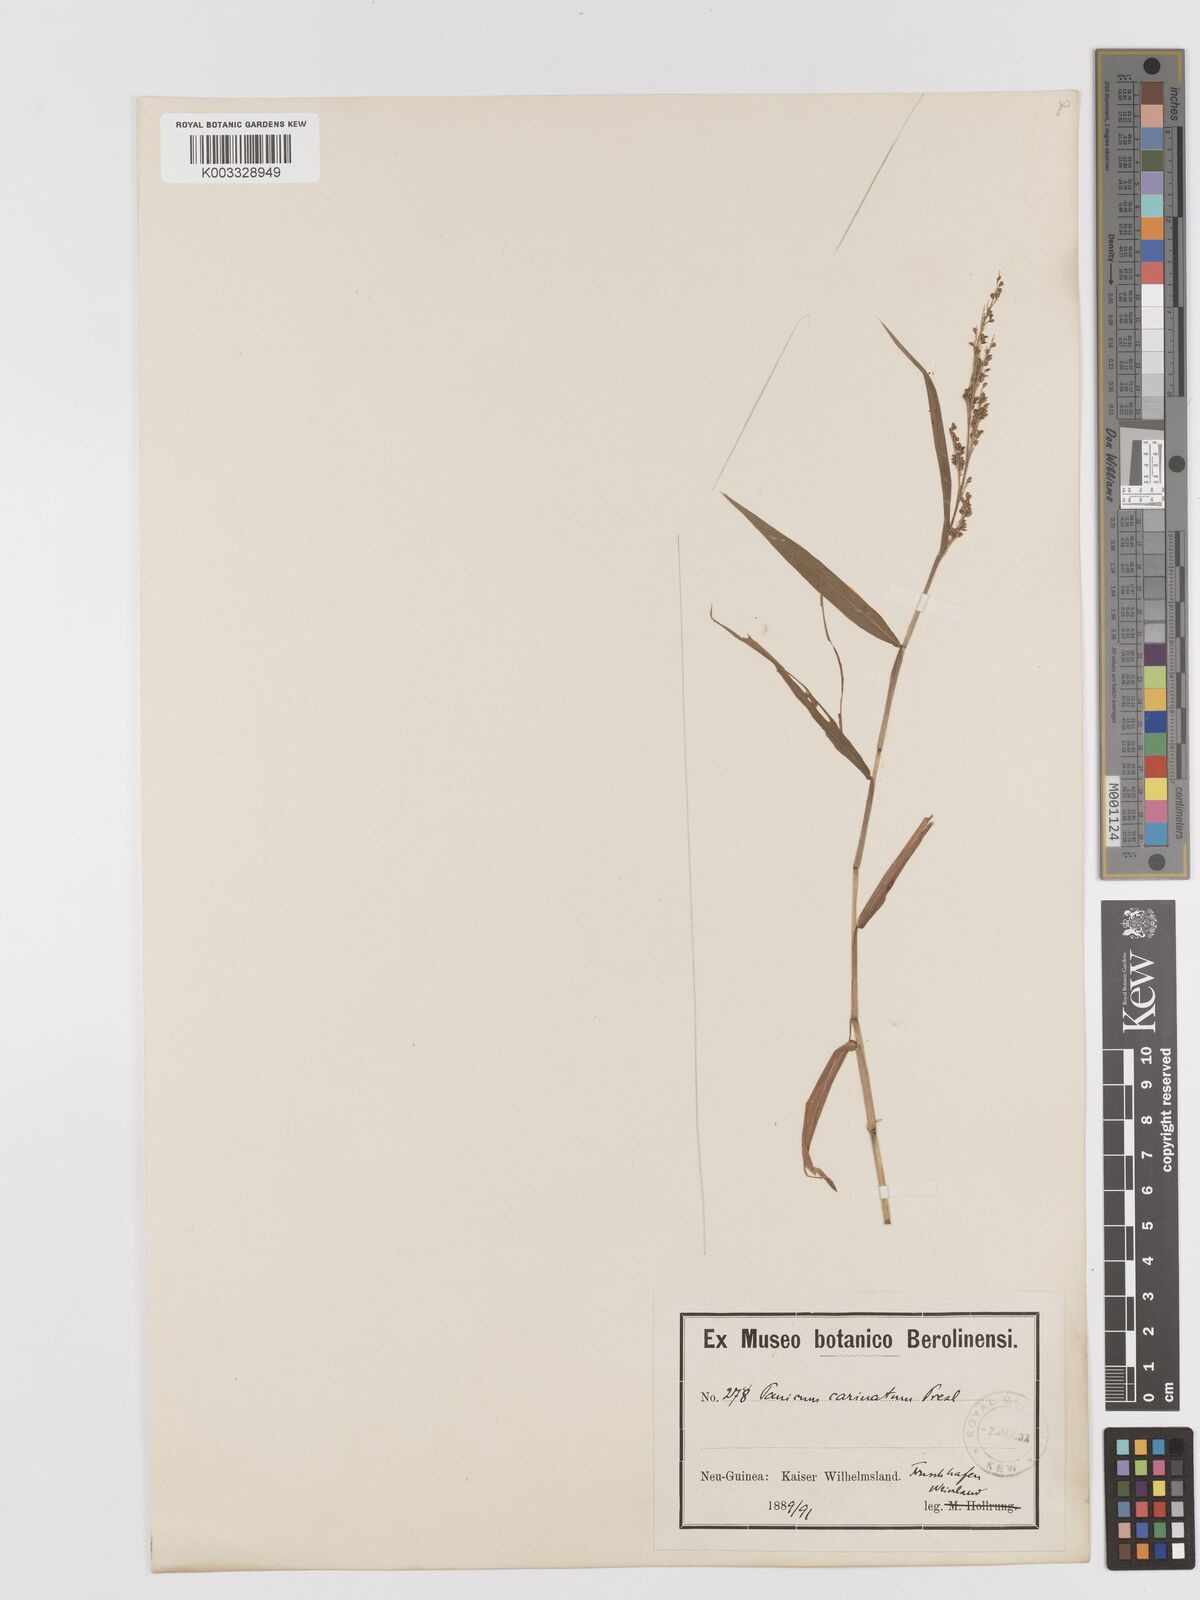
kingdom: Plantae
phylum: Tracheophyta
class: Liliopsida
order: Poales
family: Poaceae
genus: Cyrtococcum
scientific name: Cyrtococcum oxyphyllum
